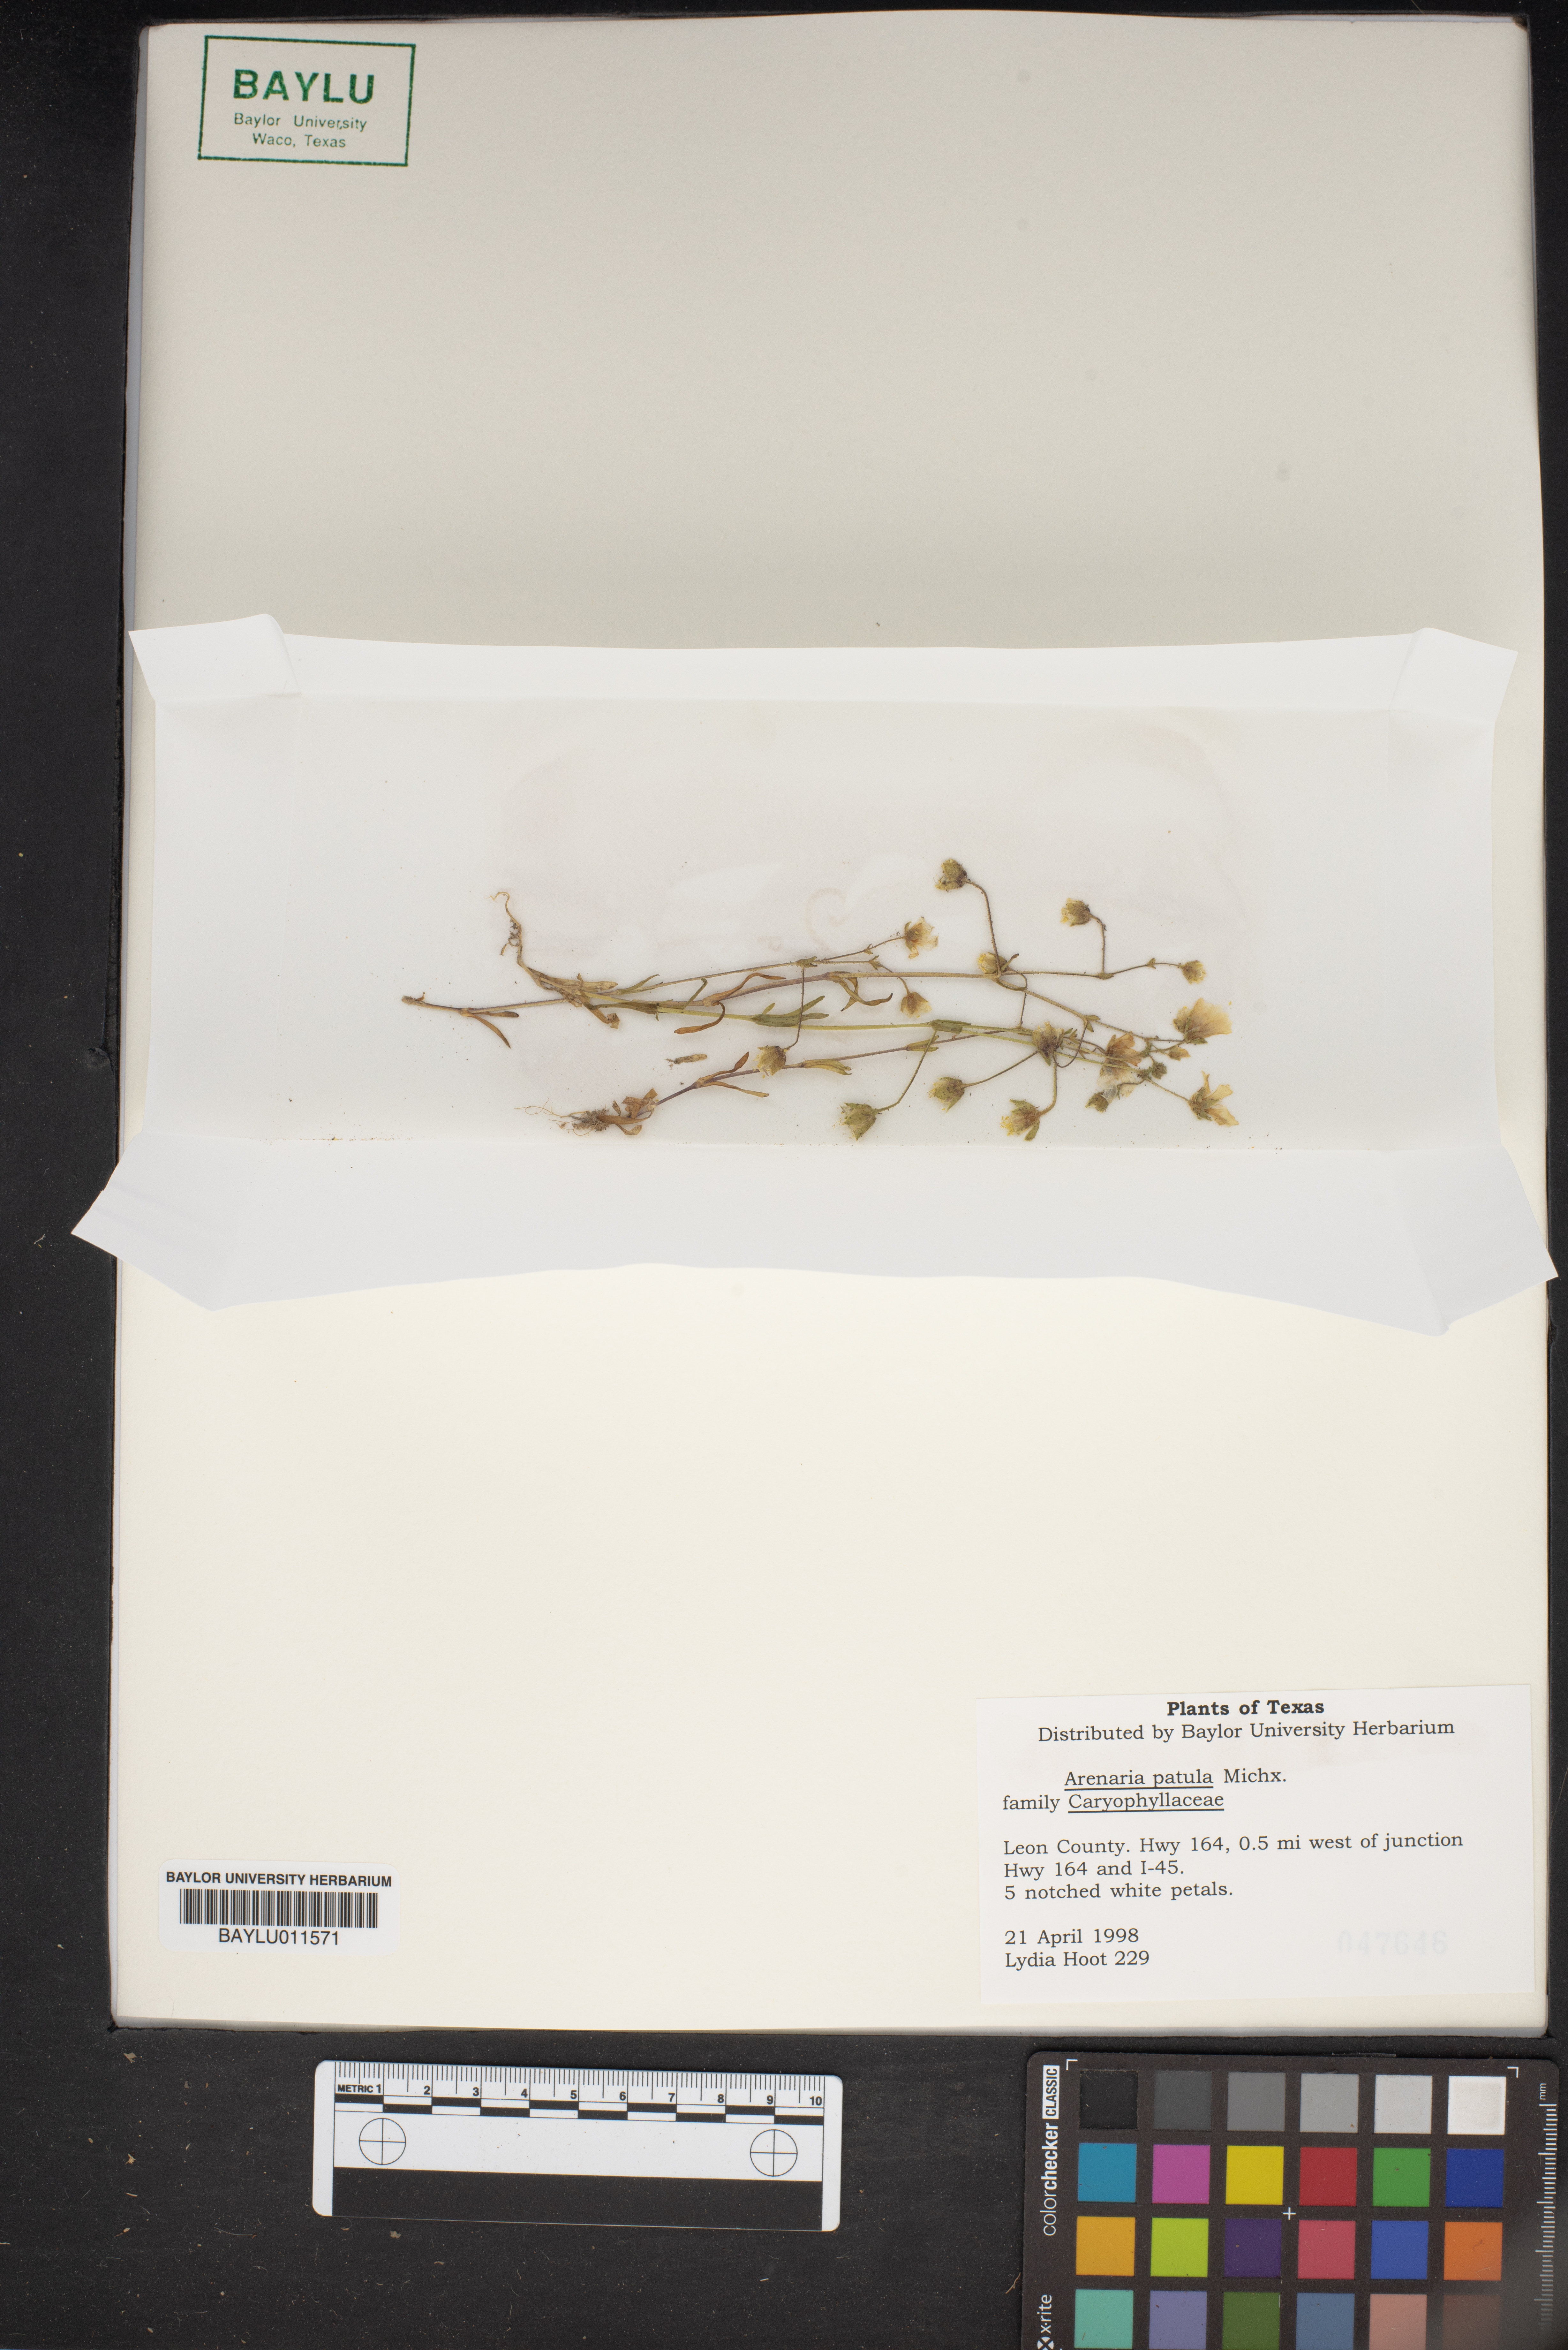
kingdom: Plantae
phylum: Tracheophyta
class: Magnoliopsida
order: Caryophyllales
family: Caryophyllaceae
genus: Mononeuria
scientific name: Mononeuria patula
